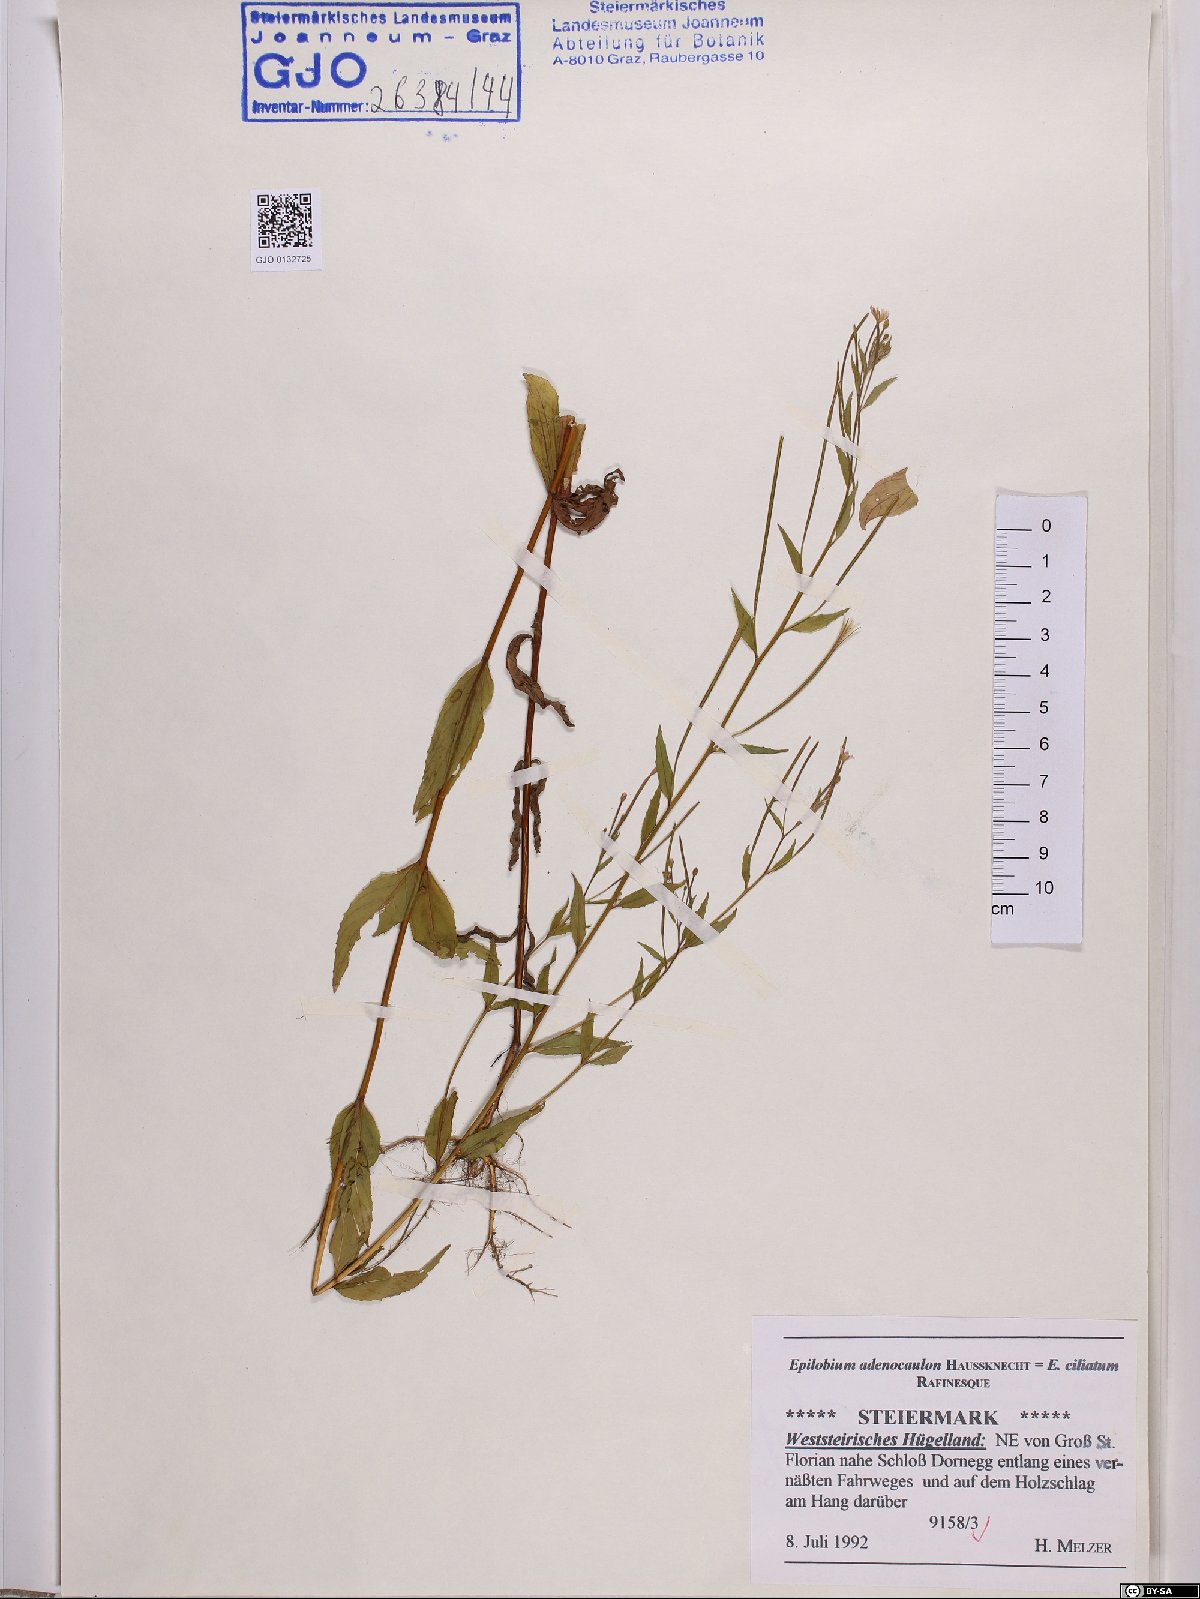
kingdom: Plantae
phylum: Tracheophyta
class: Magnoliopsida
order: Myrtales
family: Onagraceae
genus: Epilobium
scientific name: Epilobium ciliatum
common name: American willowherb
